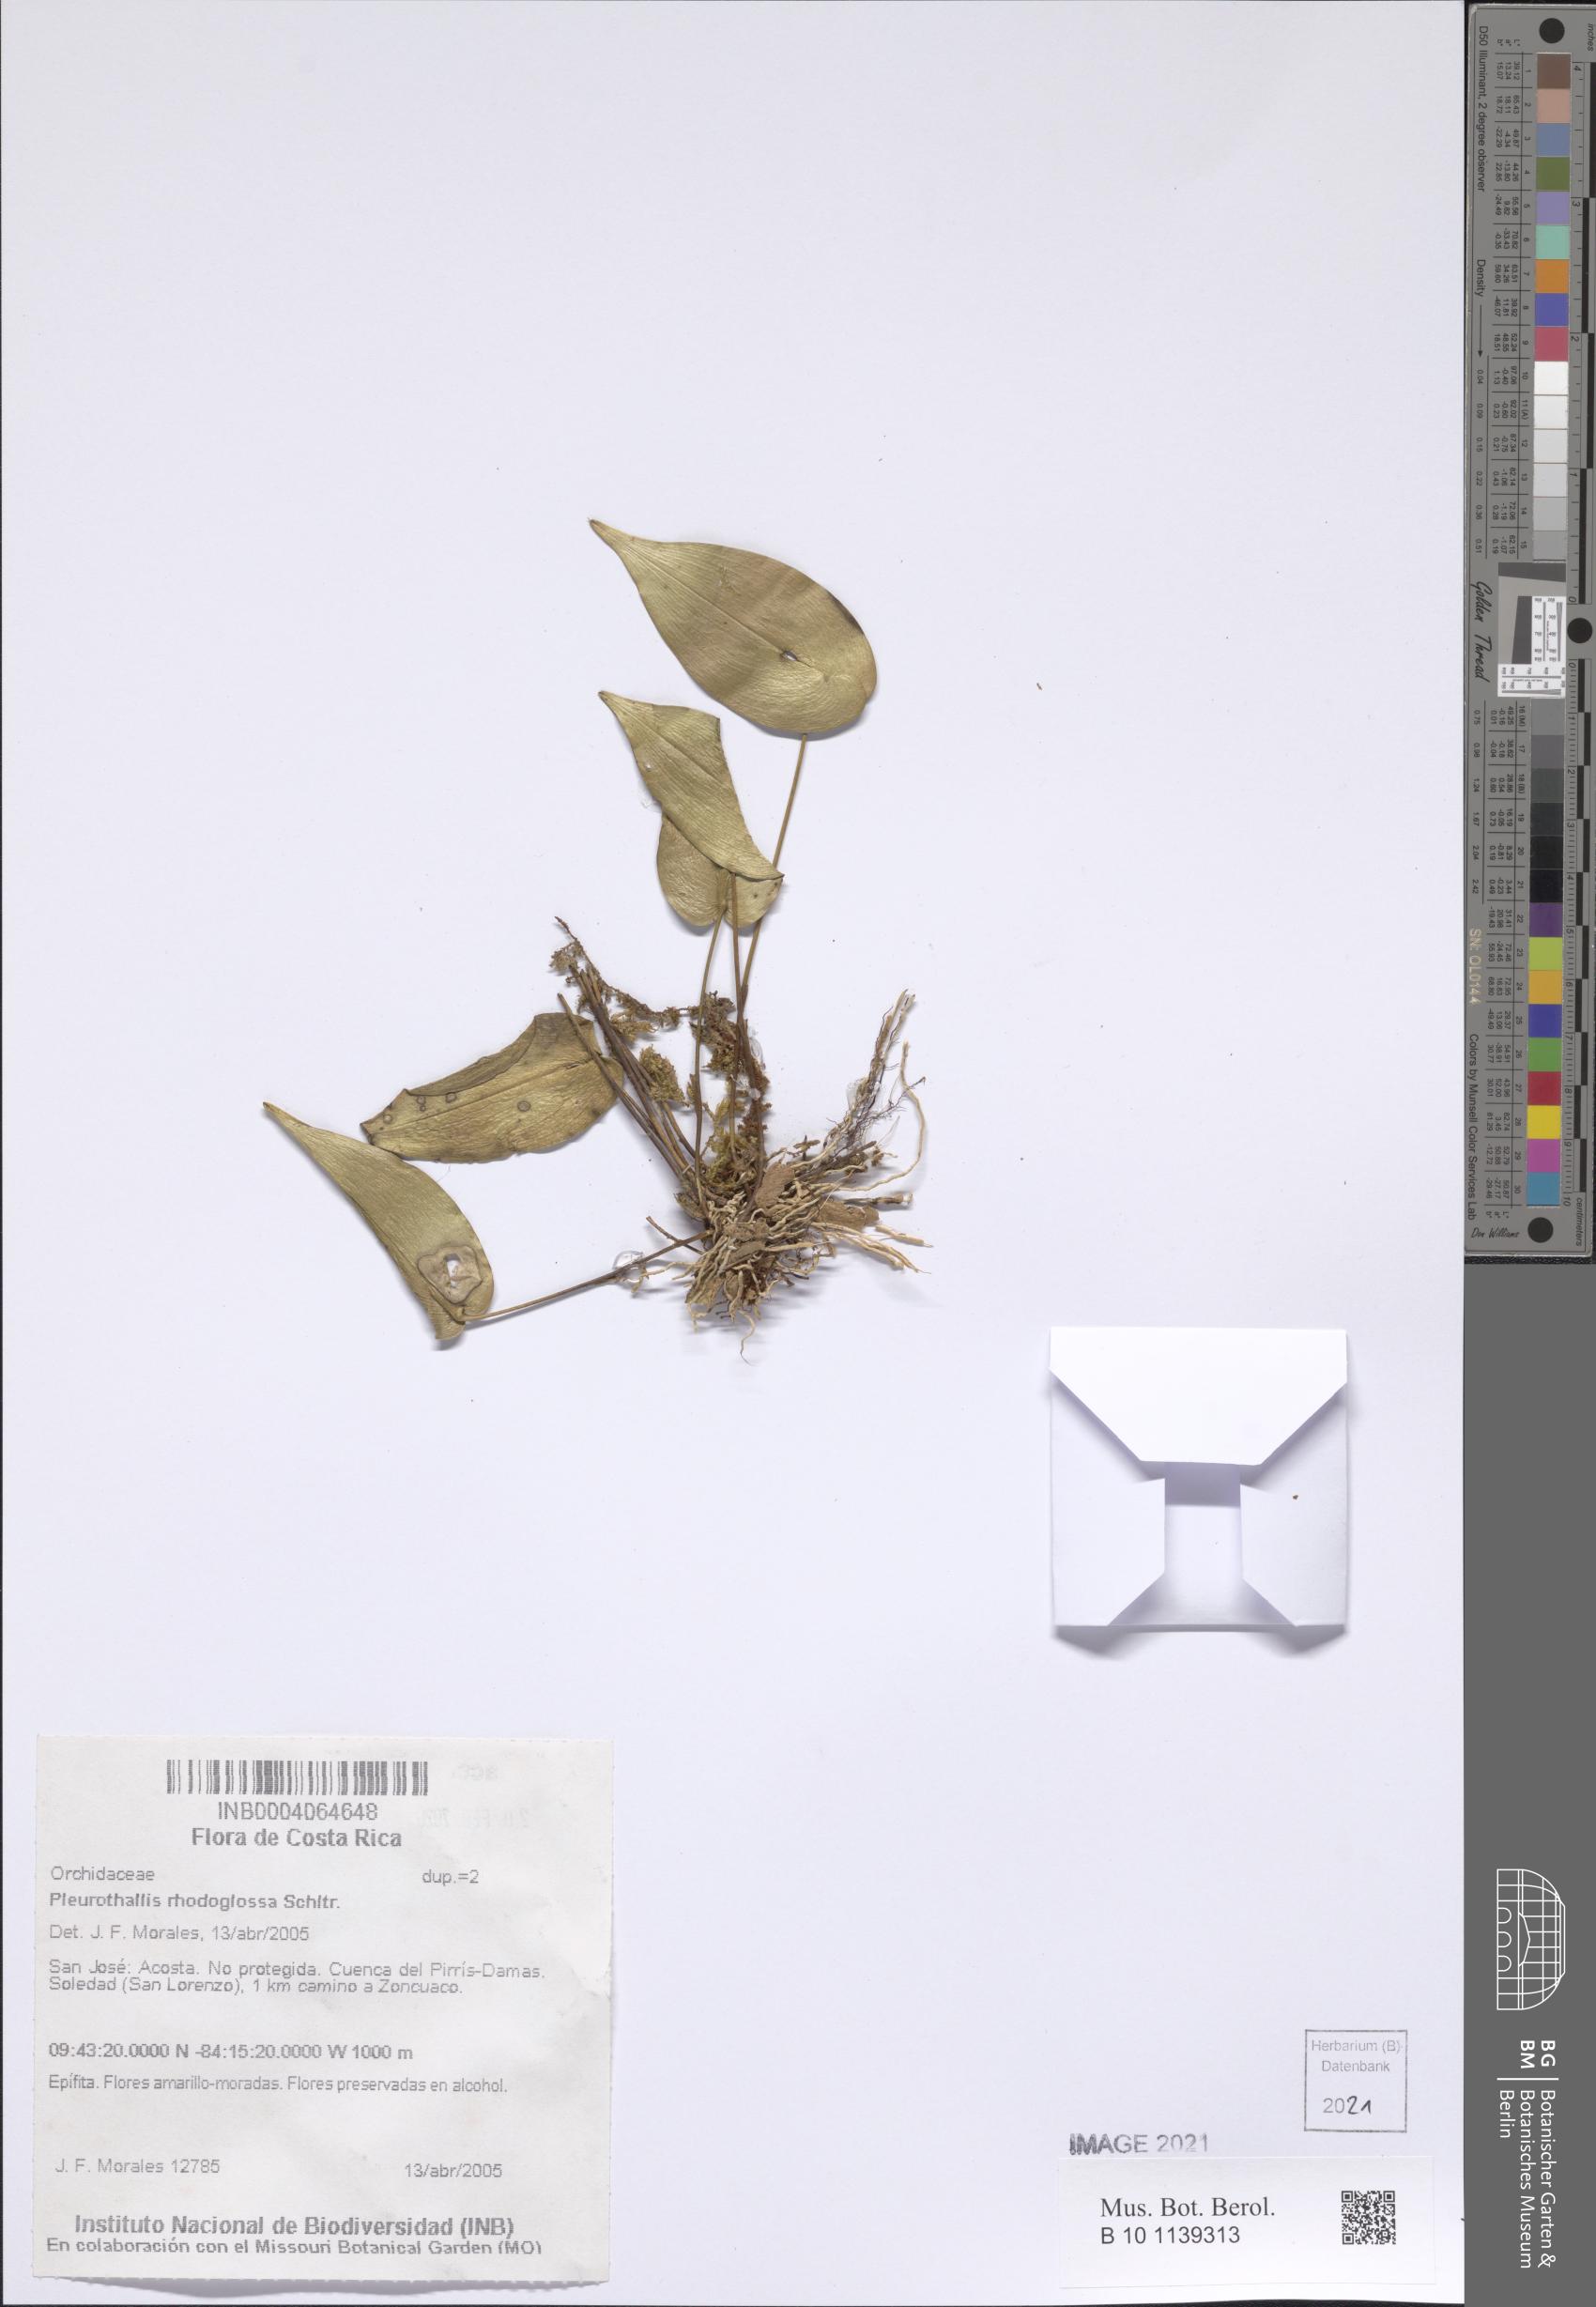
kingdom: Plantae
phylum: Tracheophyta
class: Liliopsida
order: Asparagales
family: Orchidaceae
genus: Pleurothallis
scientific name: Pleurothallis rhodoglossa
